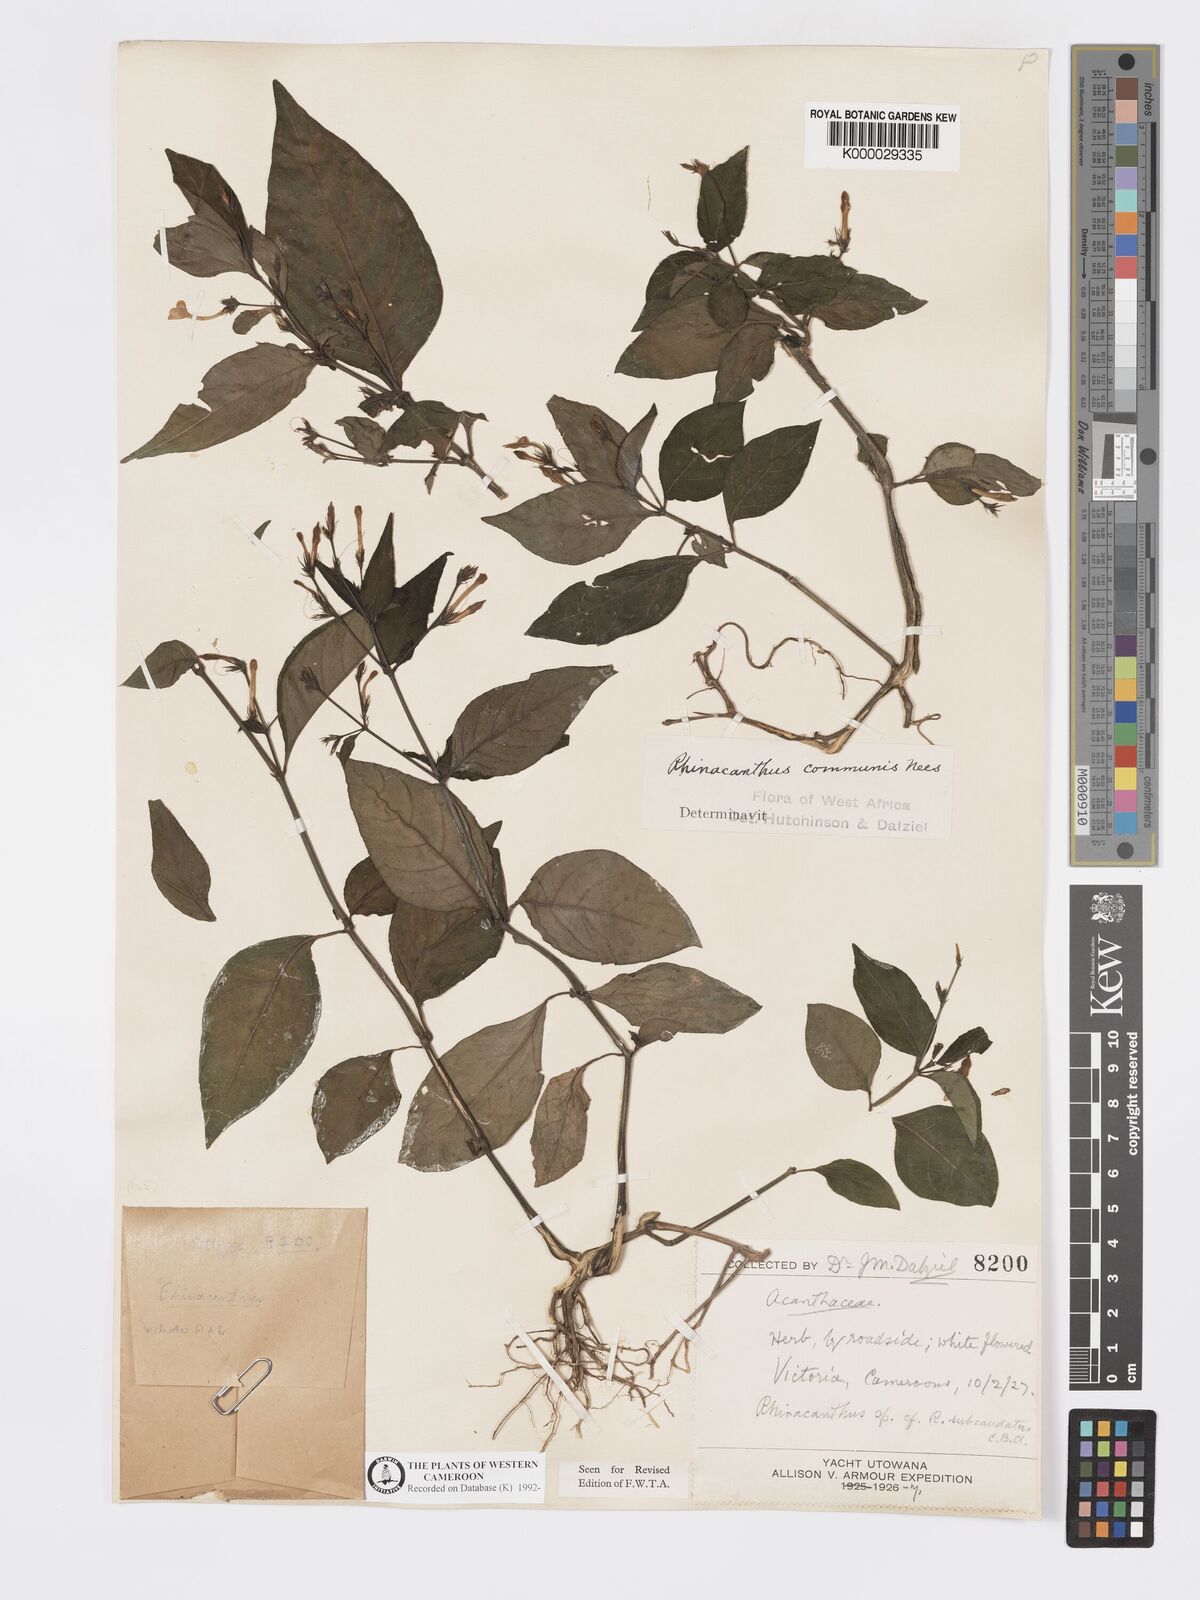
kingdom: Plantae
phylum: Tracheophyta
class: Magnoliopsida
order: Lamiales
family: Acanthaceae
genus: Rhinacanthus
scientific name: Rhinacanthus virens
